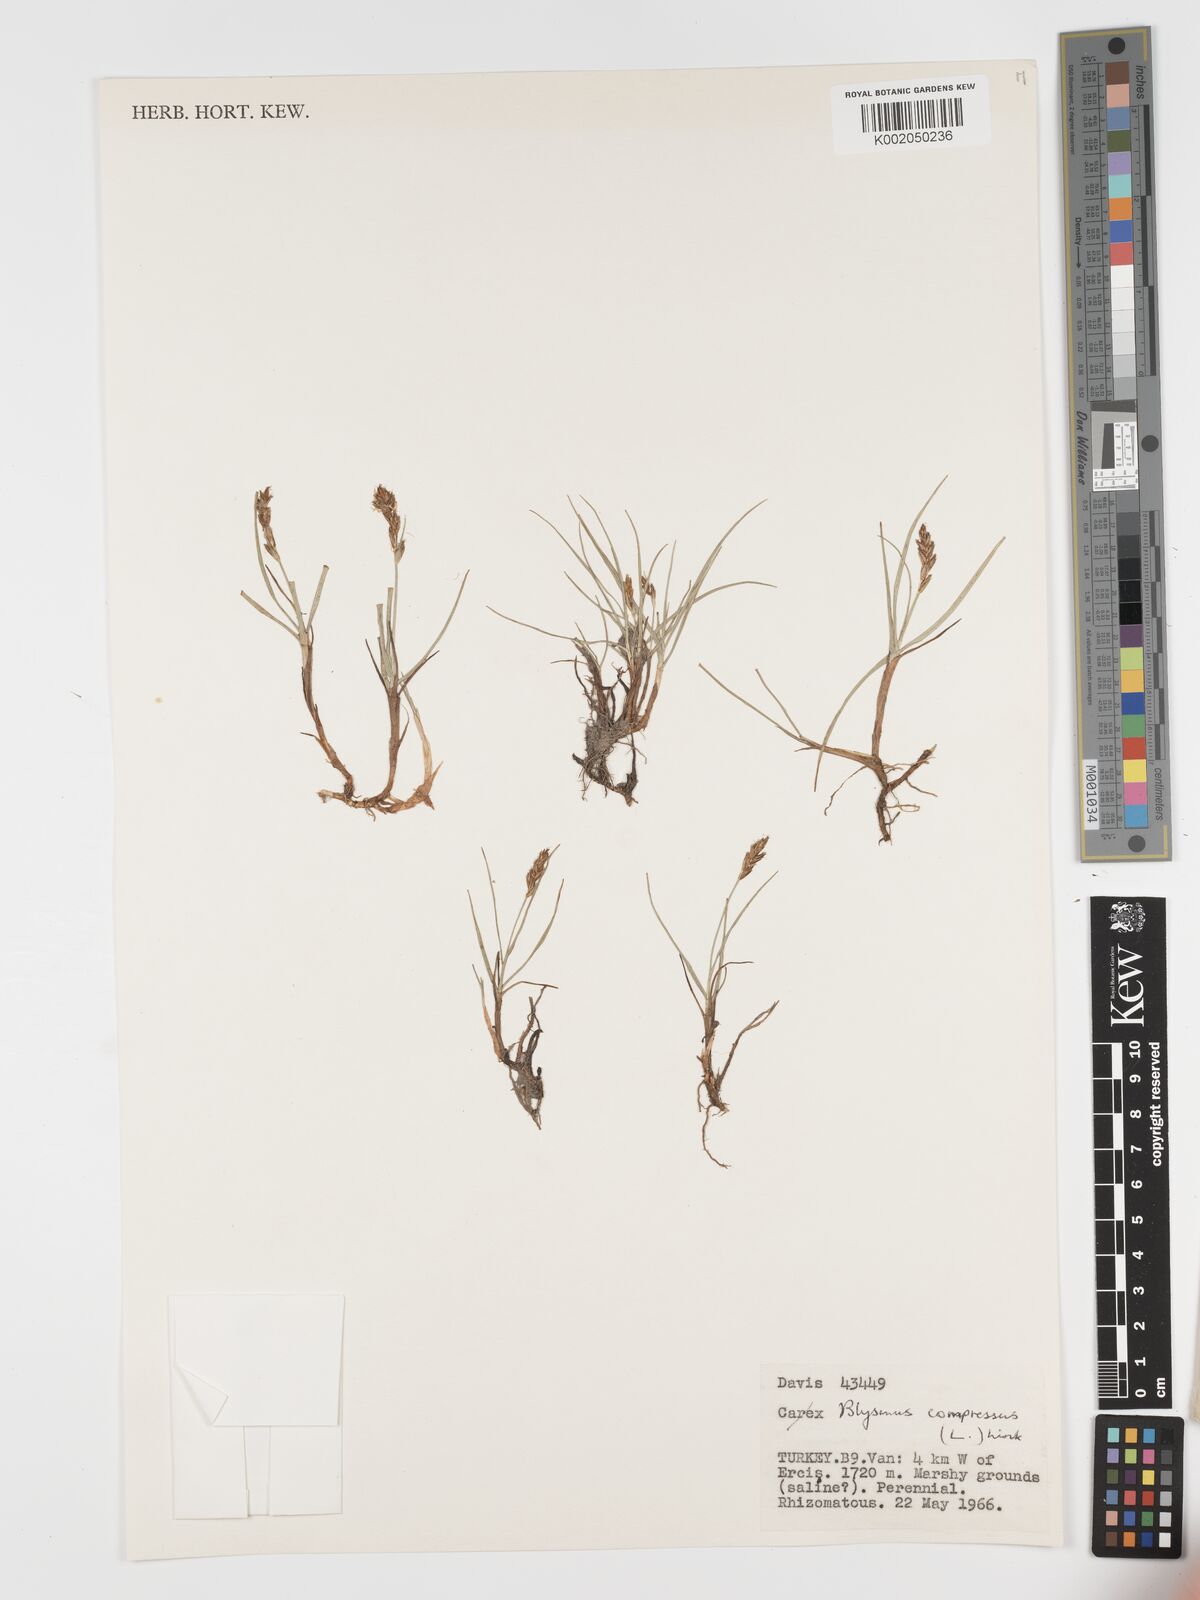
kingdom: Plantae
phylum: Tracheophyta
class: Liliopsida
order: Poales
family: Cyperaceae
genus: Blysmus
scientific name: Blysmus compressus
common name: Flat-sedge
